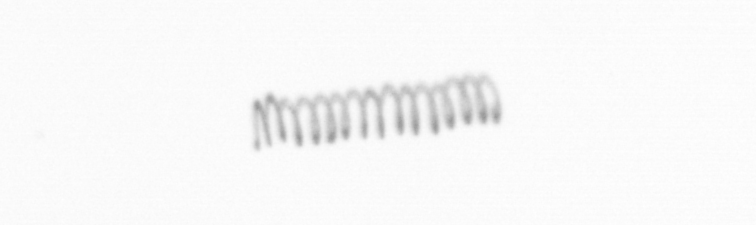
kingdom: Chromista
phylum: Ochrophyta
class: Bacillariophyceae
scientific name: Bacillariophyceae
